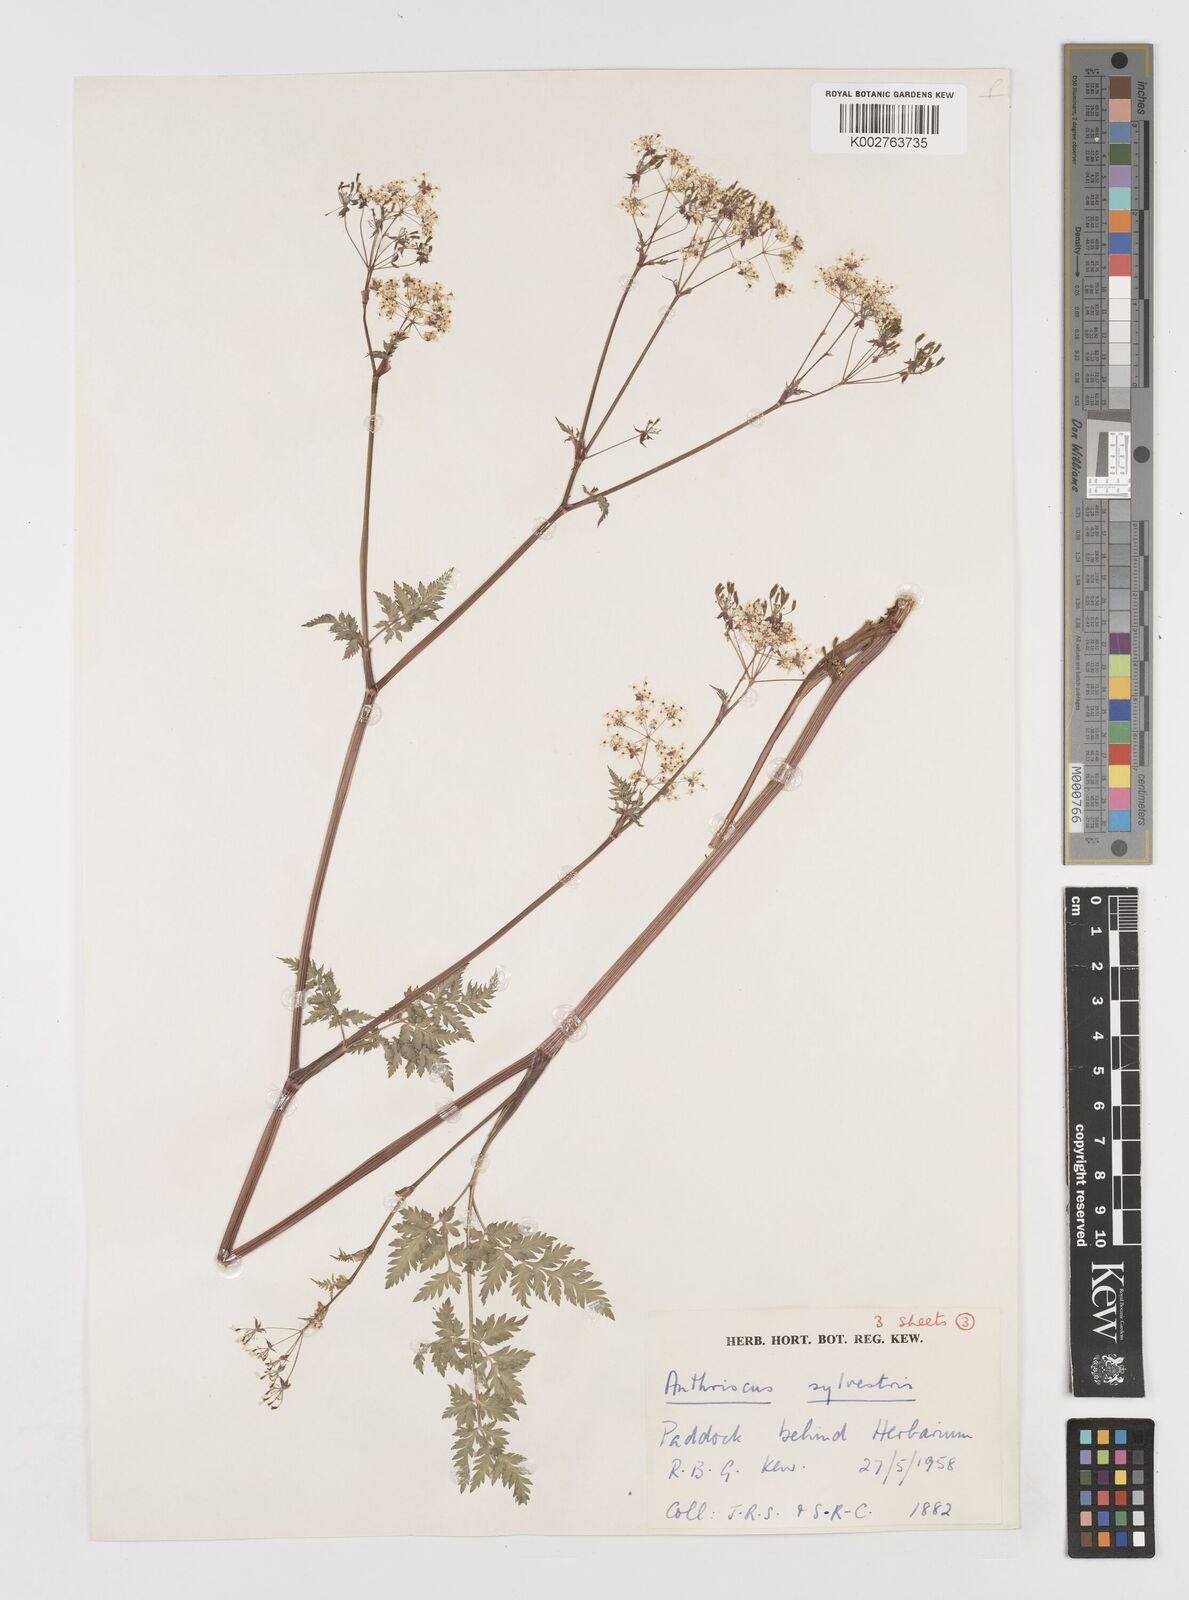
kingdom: Plantae
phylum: Tracheophyta
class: Magnoliopsida
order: Apiales
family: Apiaceae
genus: Anthriscus
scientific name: Anthriscus sylvestris
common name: Cow parsley
